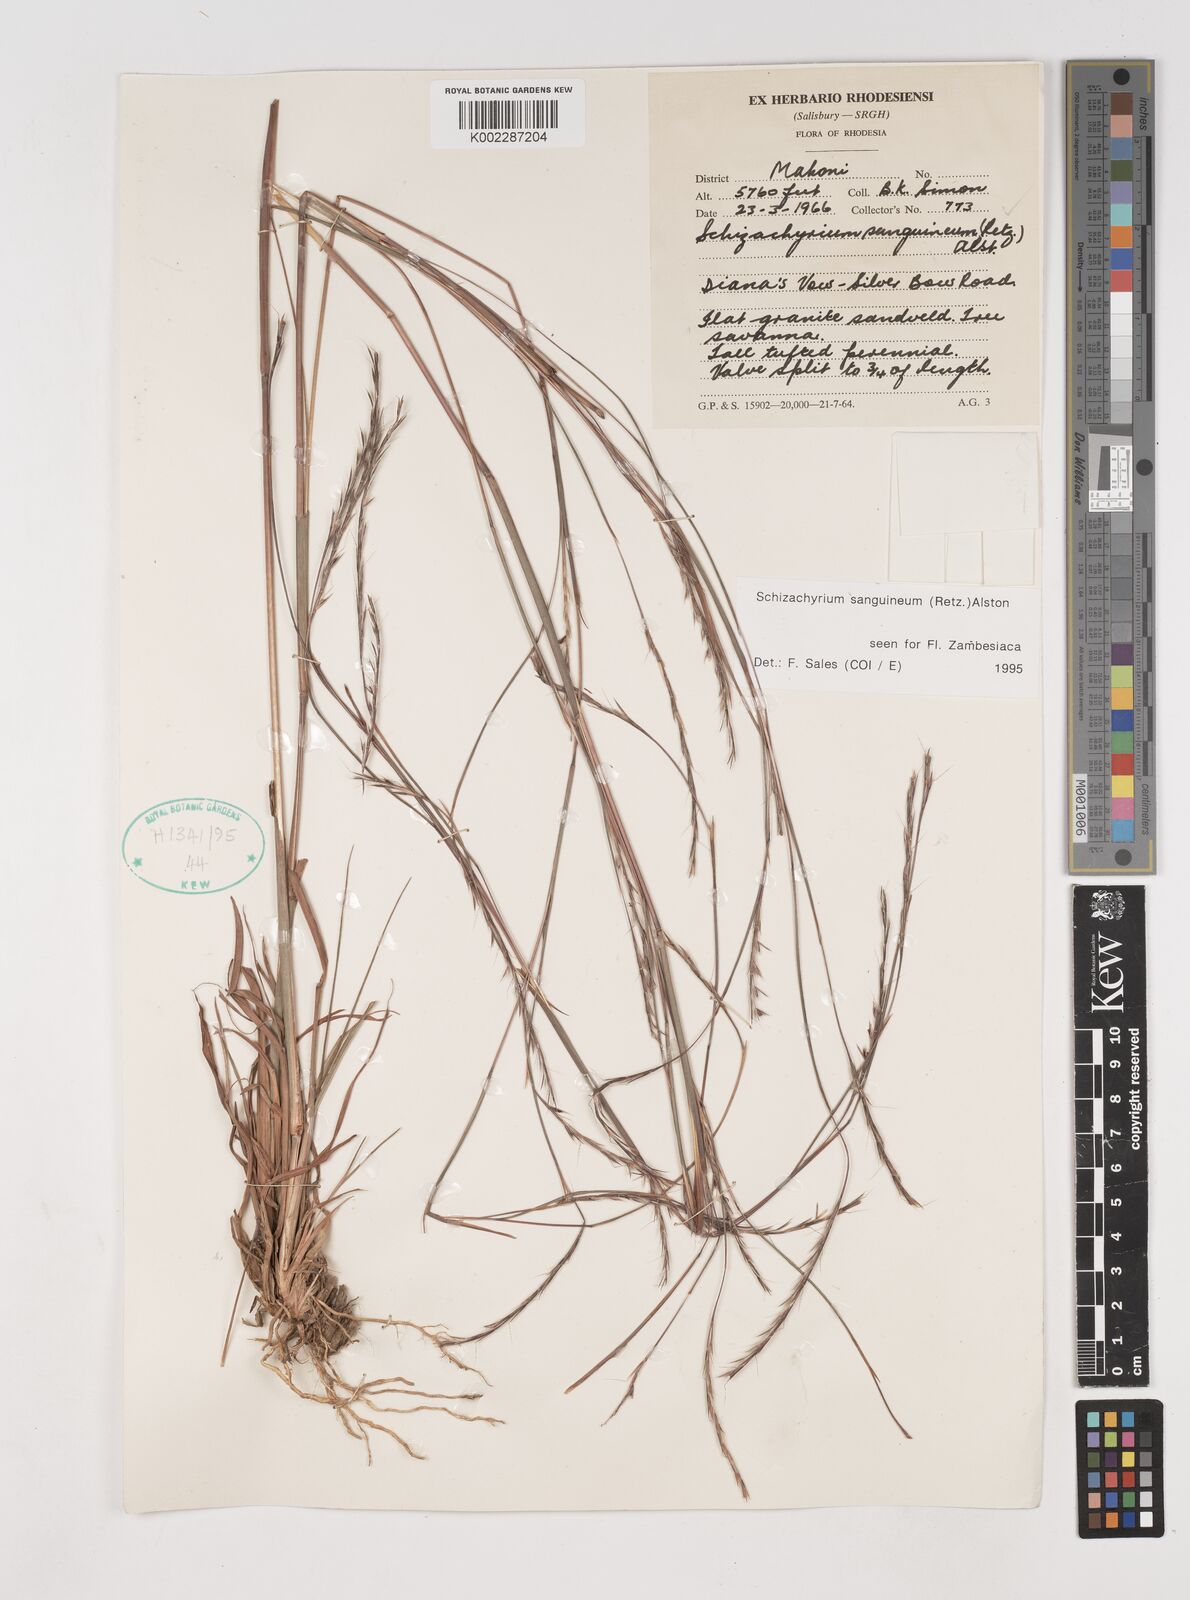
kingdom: Plantae
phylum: Tracheophyta
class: Liliopsida
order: Poales
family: Poaceae
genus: Schizachyrium
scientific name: Schizachyrium sanguineum
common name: Crimson bluestem
